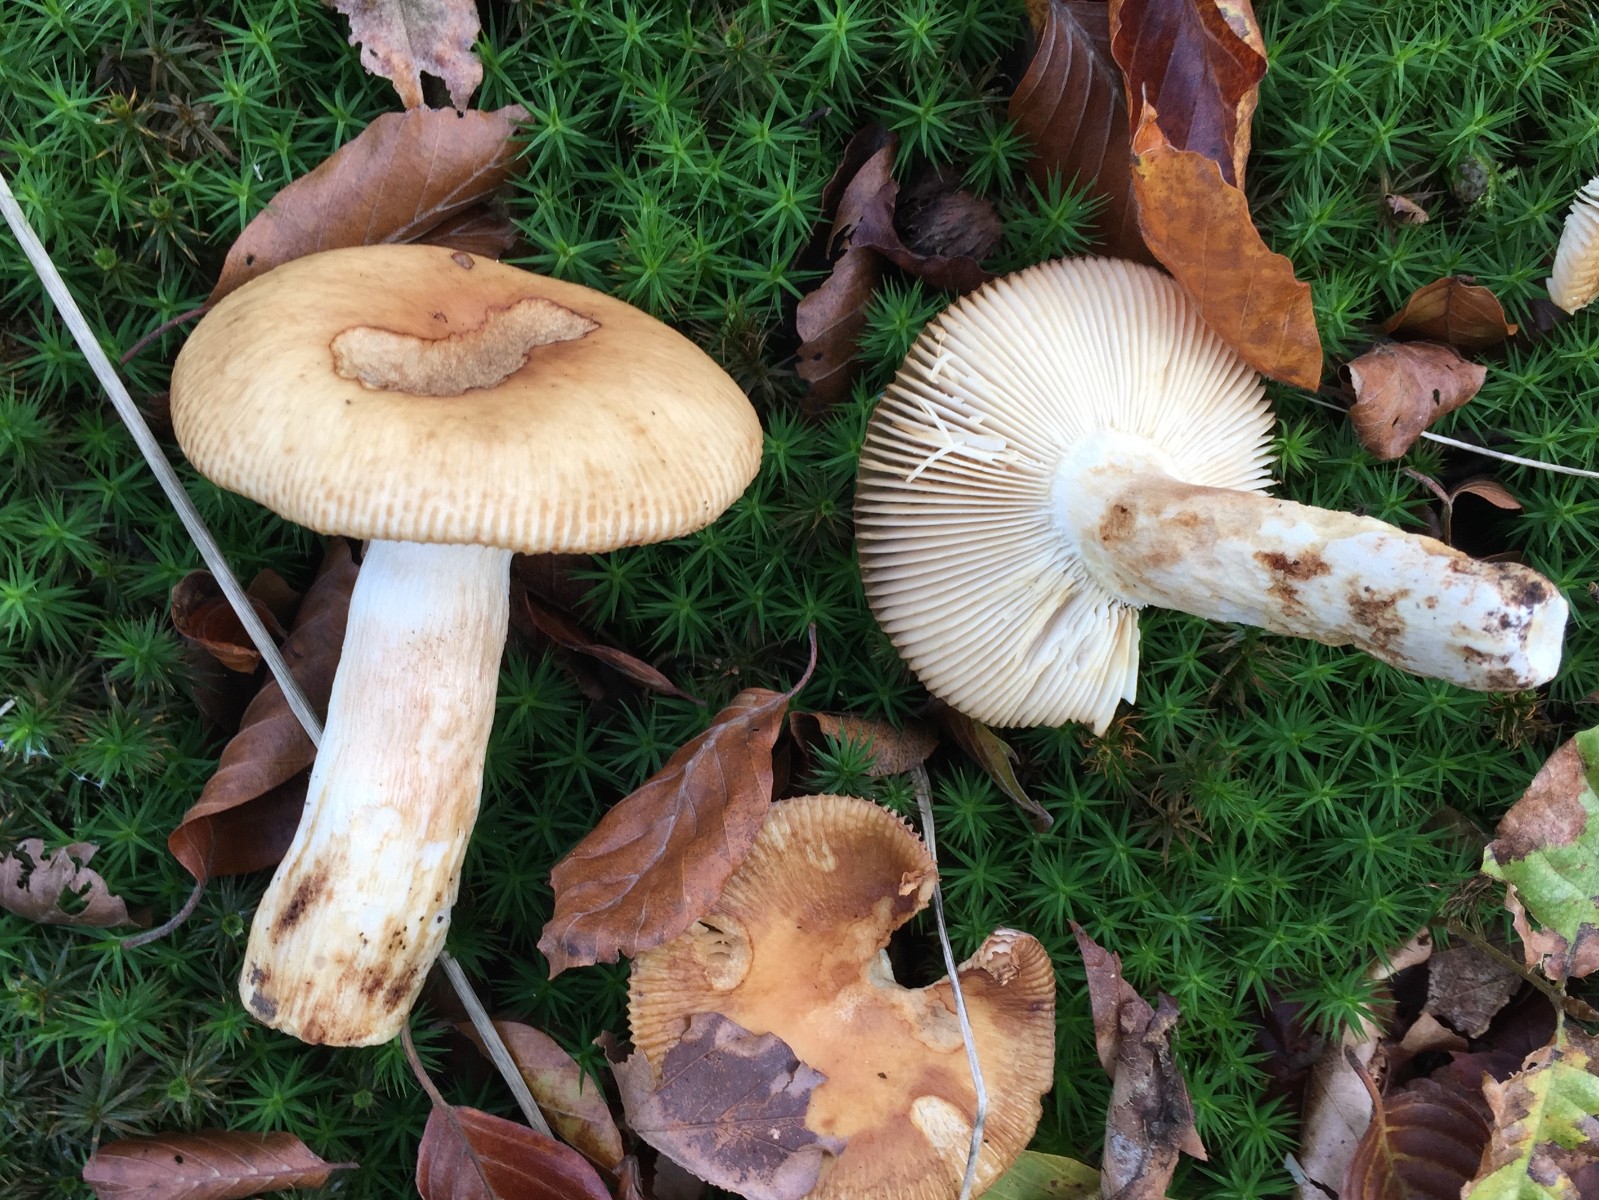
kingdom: Fungi
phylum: Basidiomycota
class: Agaricomycetes
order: Russulales
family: Russulaceae
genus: Russula
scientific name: Russula grata
